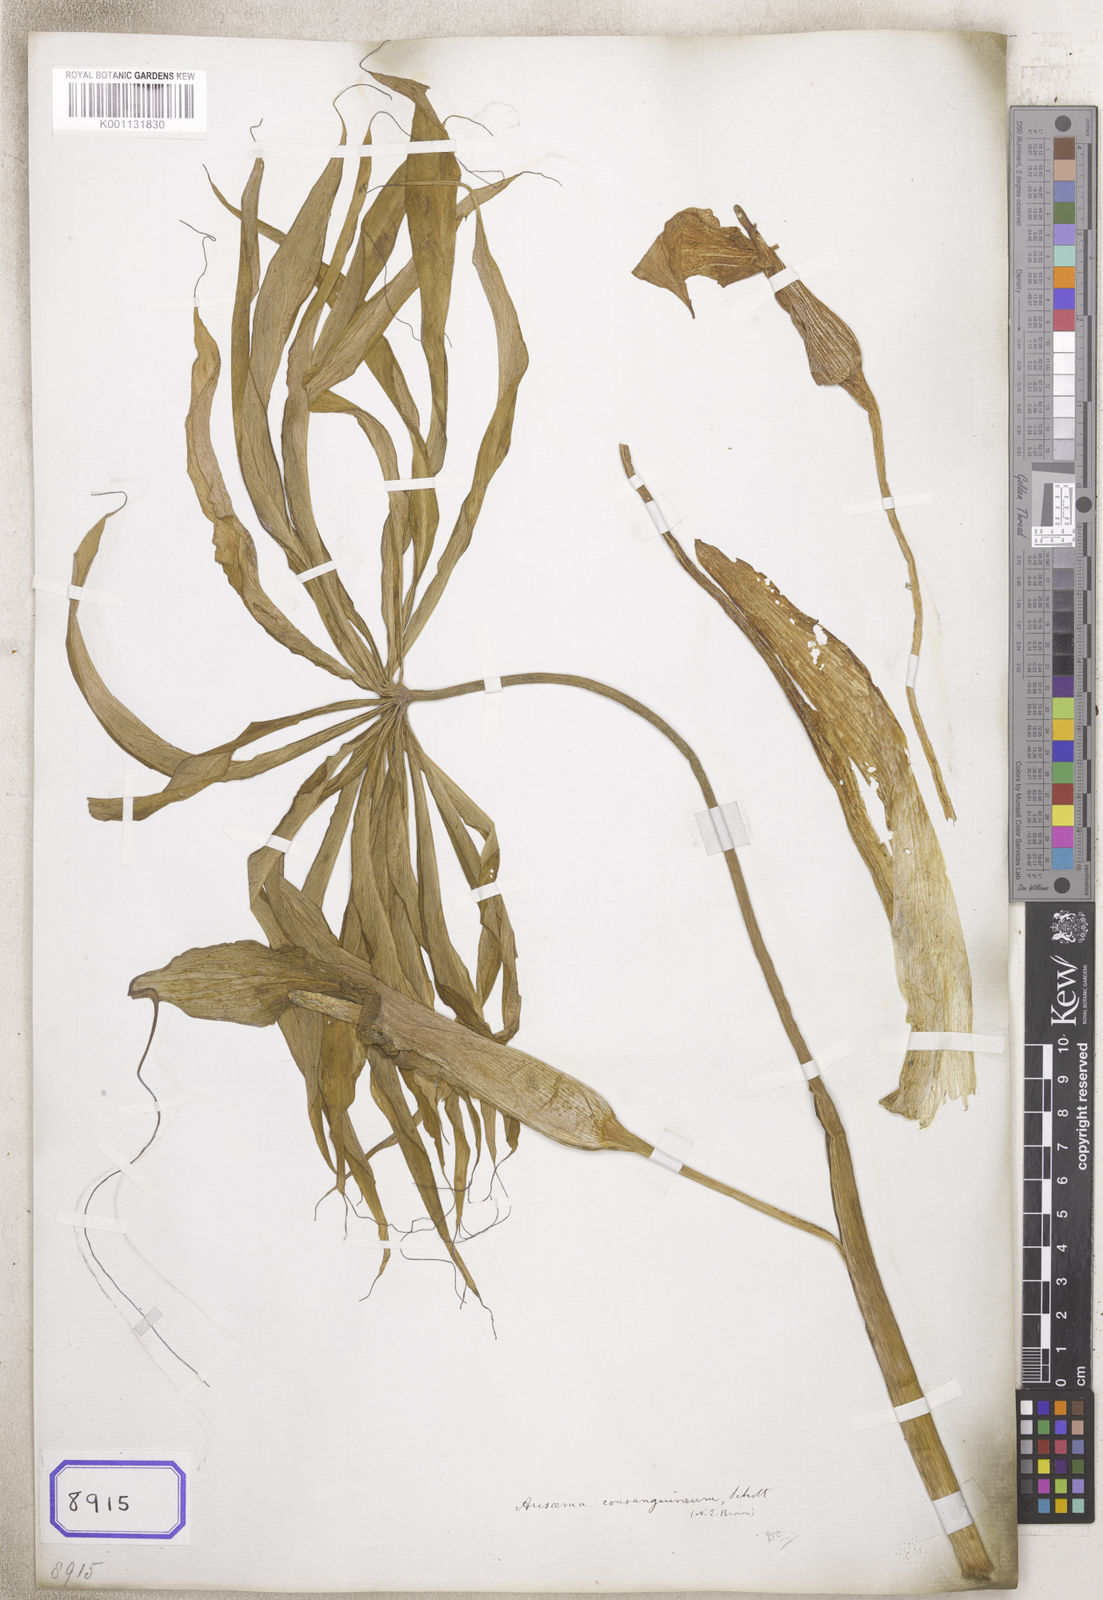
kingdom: Plantae
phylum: Tracheophyta
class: Liliopsida
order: Alismatales
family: Araceae
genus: Arisaema
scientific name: Arisaema
